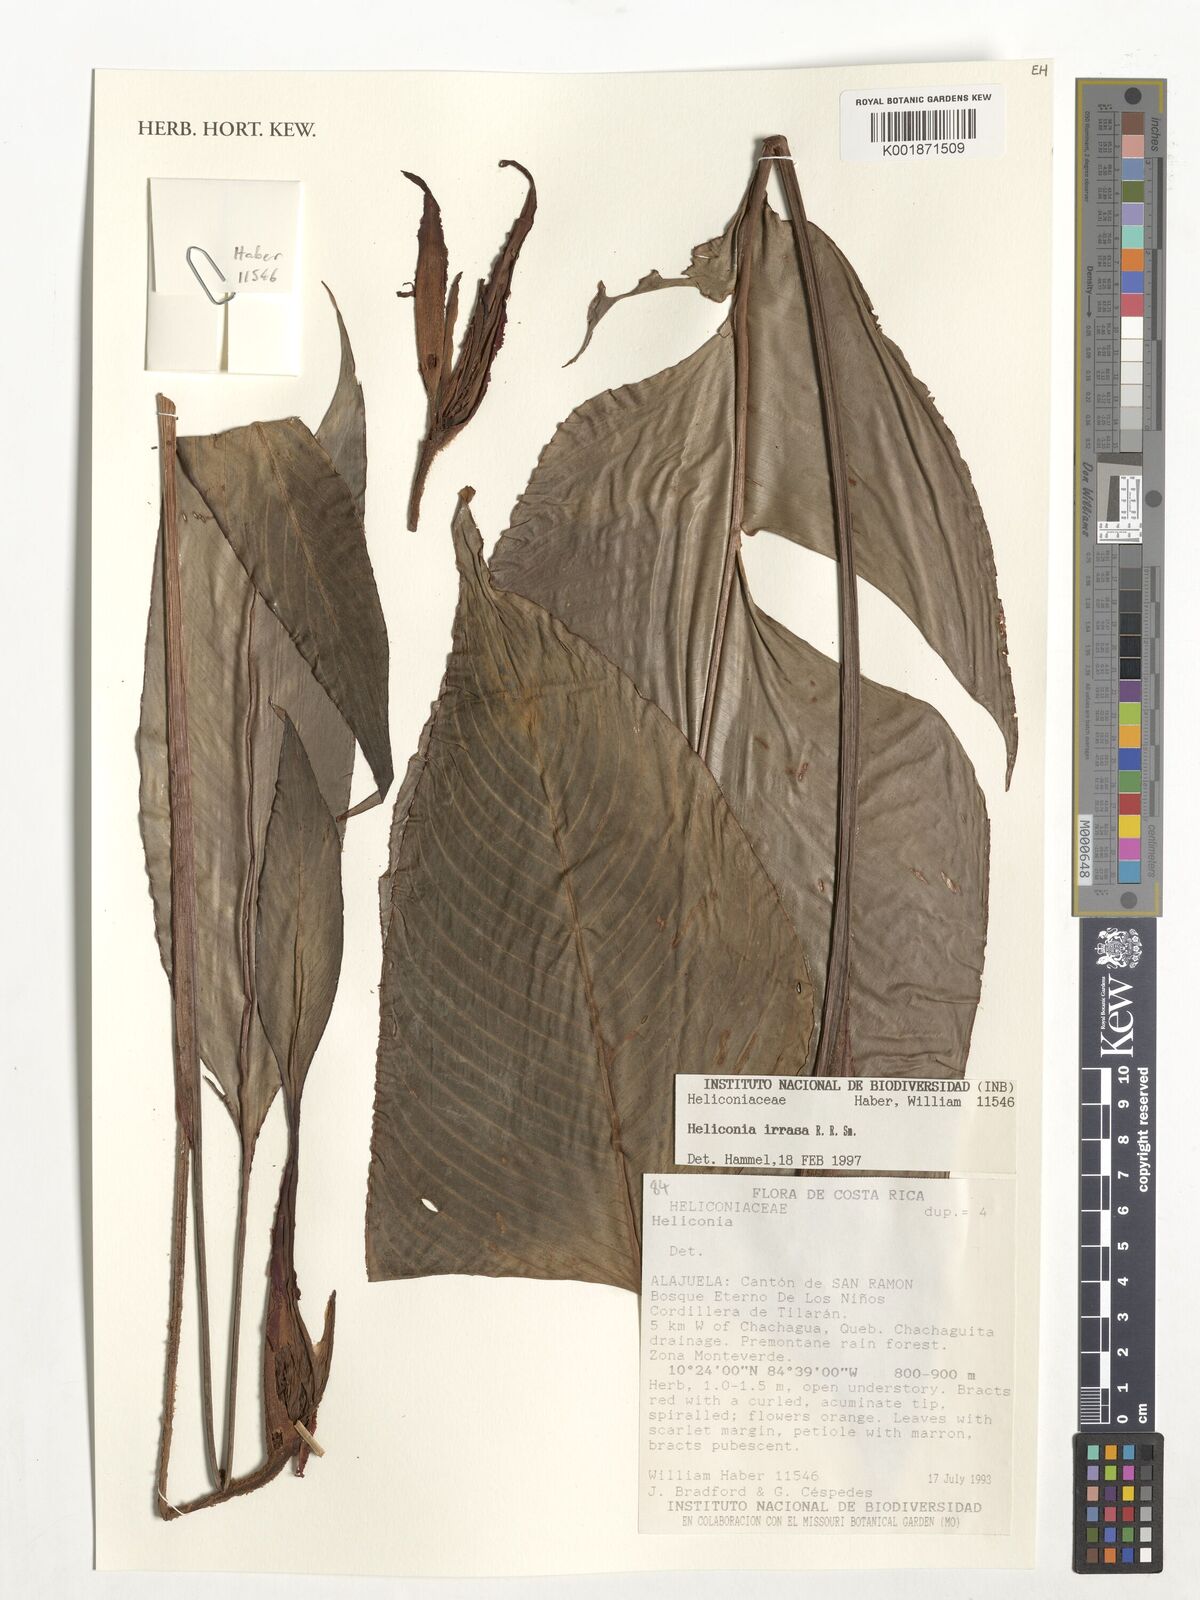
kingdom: Plantae
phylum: Tracheophyta
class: Liliopsida
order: Zingiberales
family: Heliconiaceae
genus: Heliconia
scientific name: Heliconia irrasa
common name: Wild plantain
